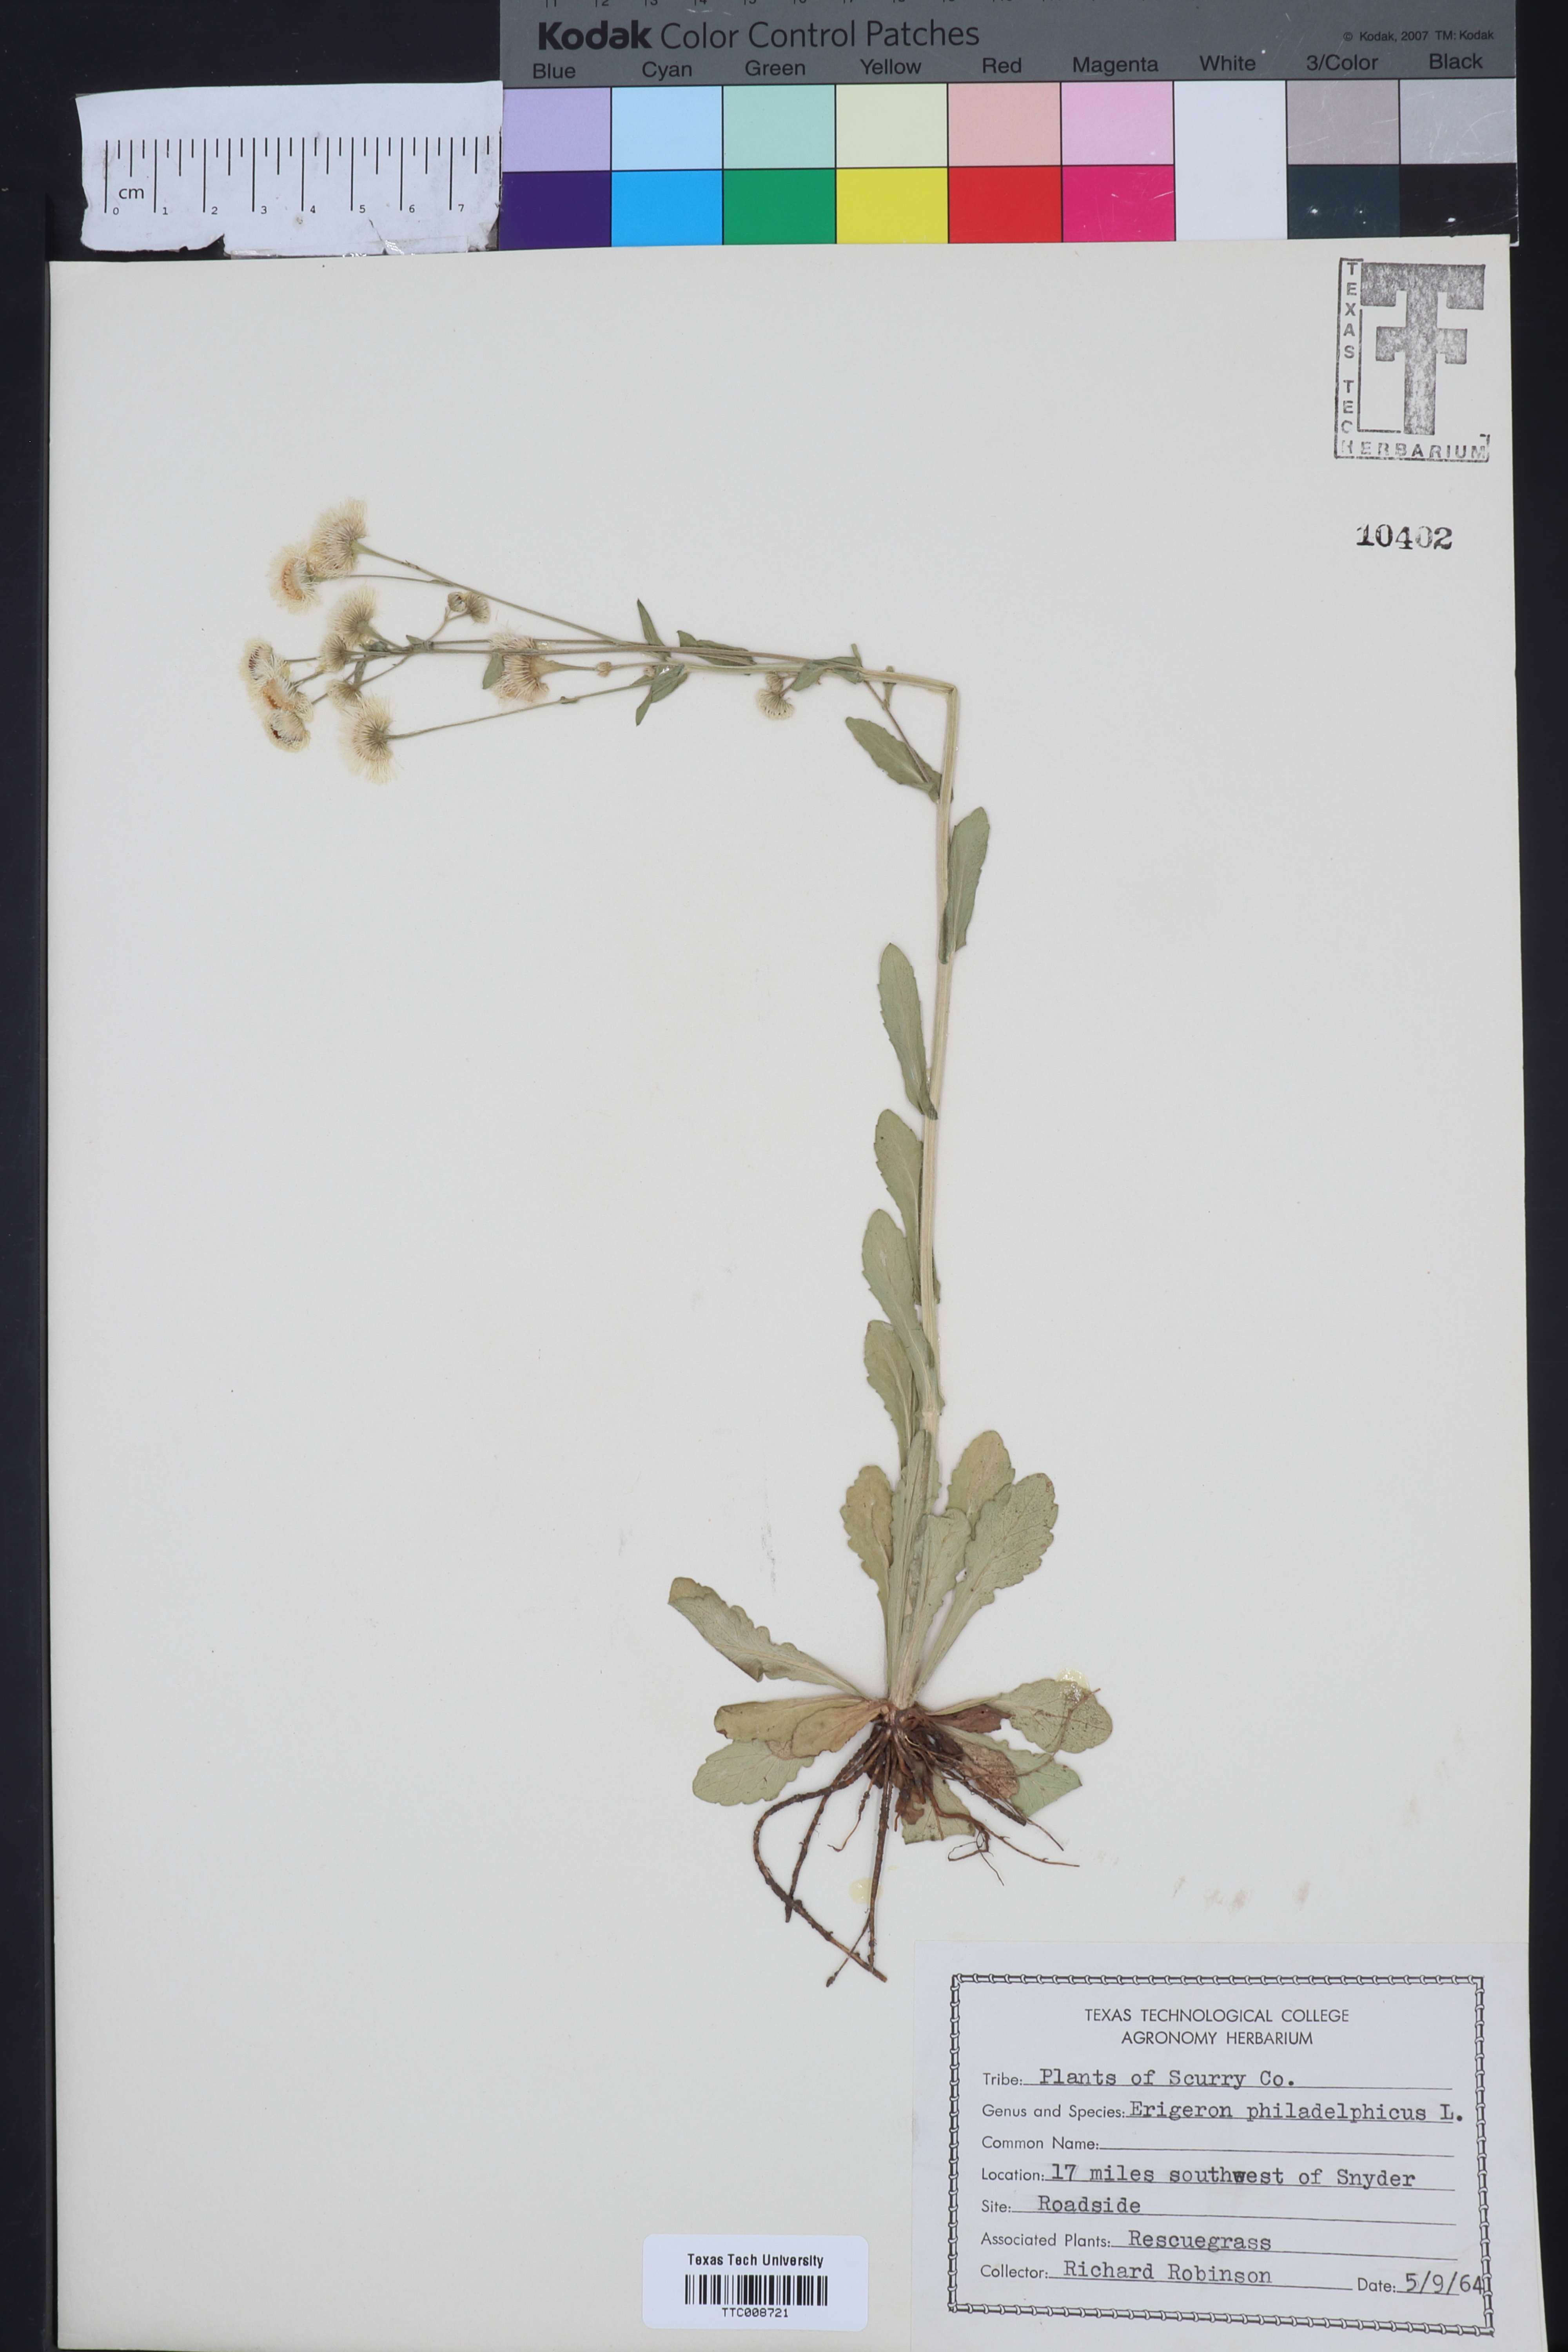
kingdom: Plantae
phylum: Tracheophyta
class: Magnoliopsida
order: Asterales
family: Asteraceae
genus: Erigeron
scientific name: Erigeron philadelphicus
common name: Robin's-plantain
